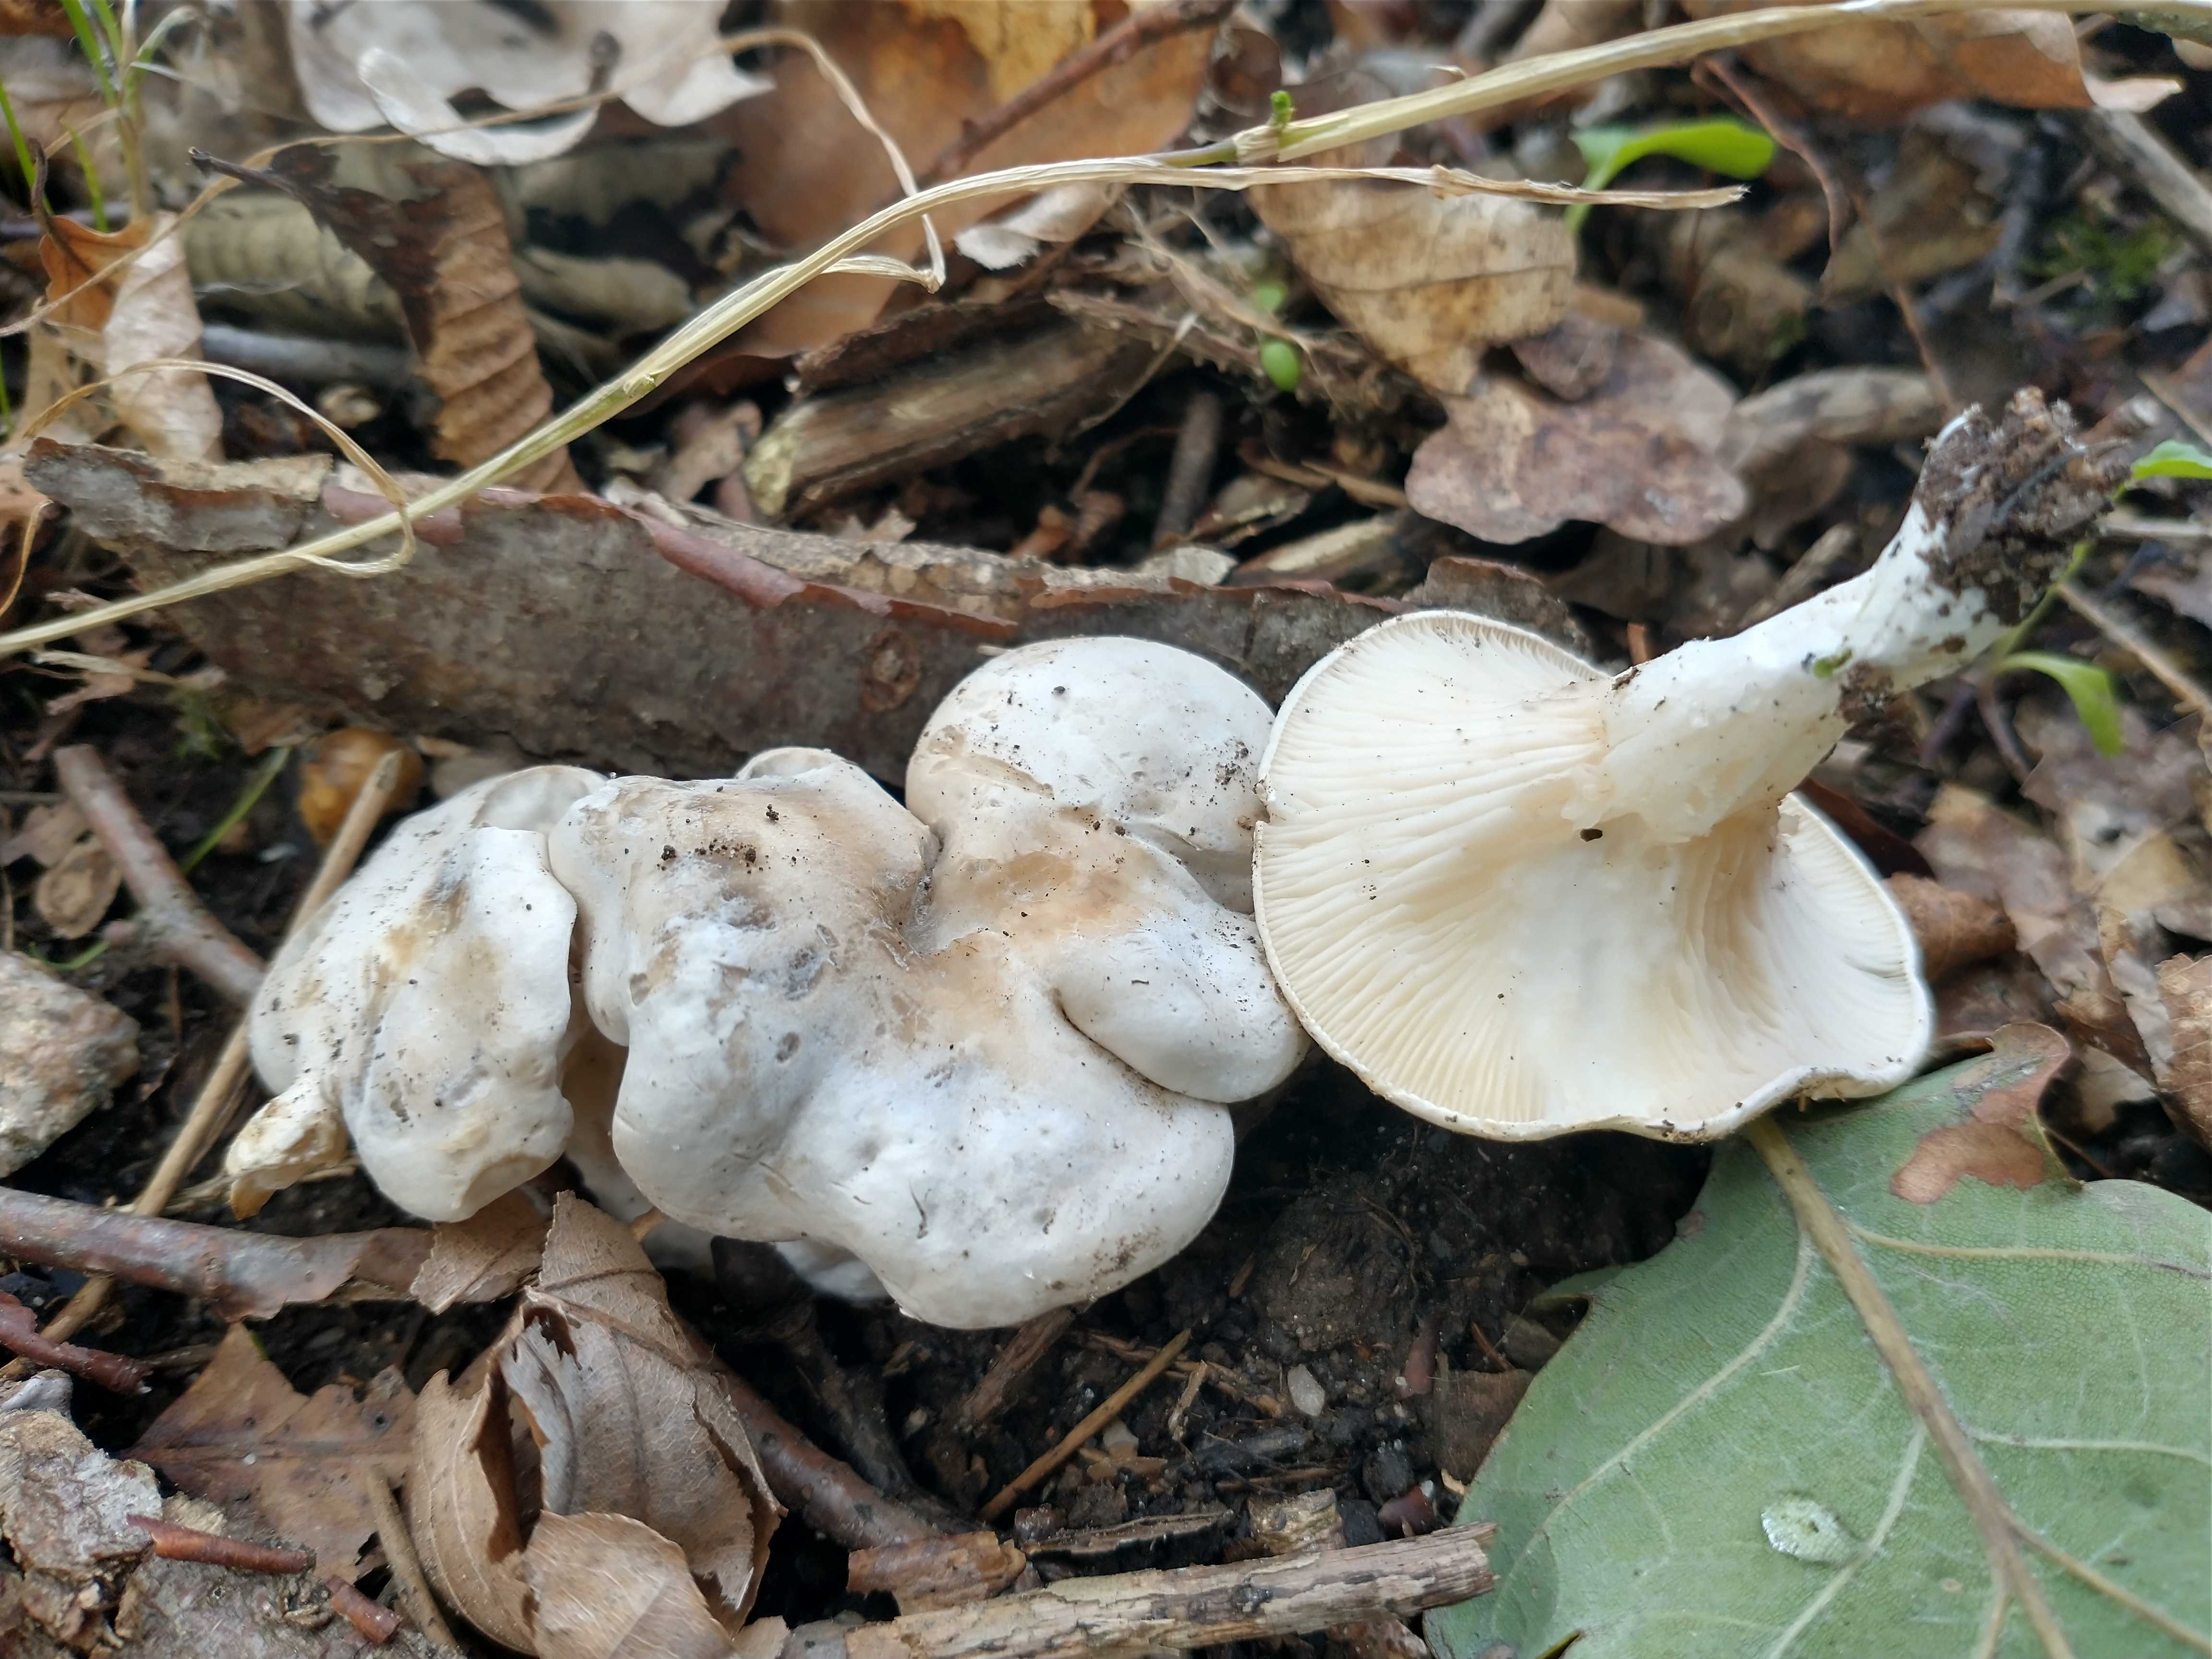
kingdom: Fungi
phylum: Basidiomycota
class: Agaricomycetes
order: Agaricales
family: Entolomataceae
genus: Clitopilus
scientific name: Clitopilus prunulus
